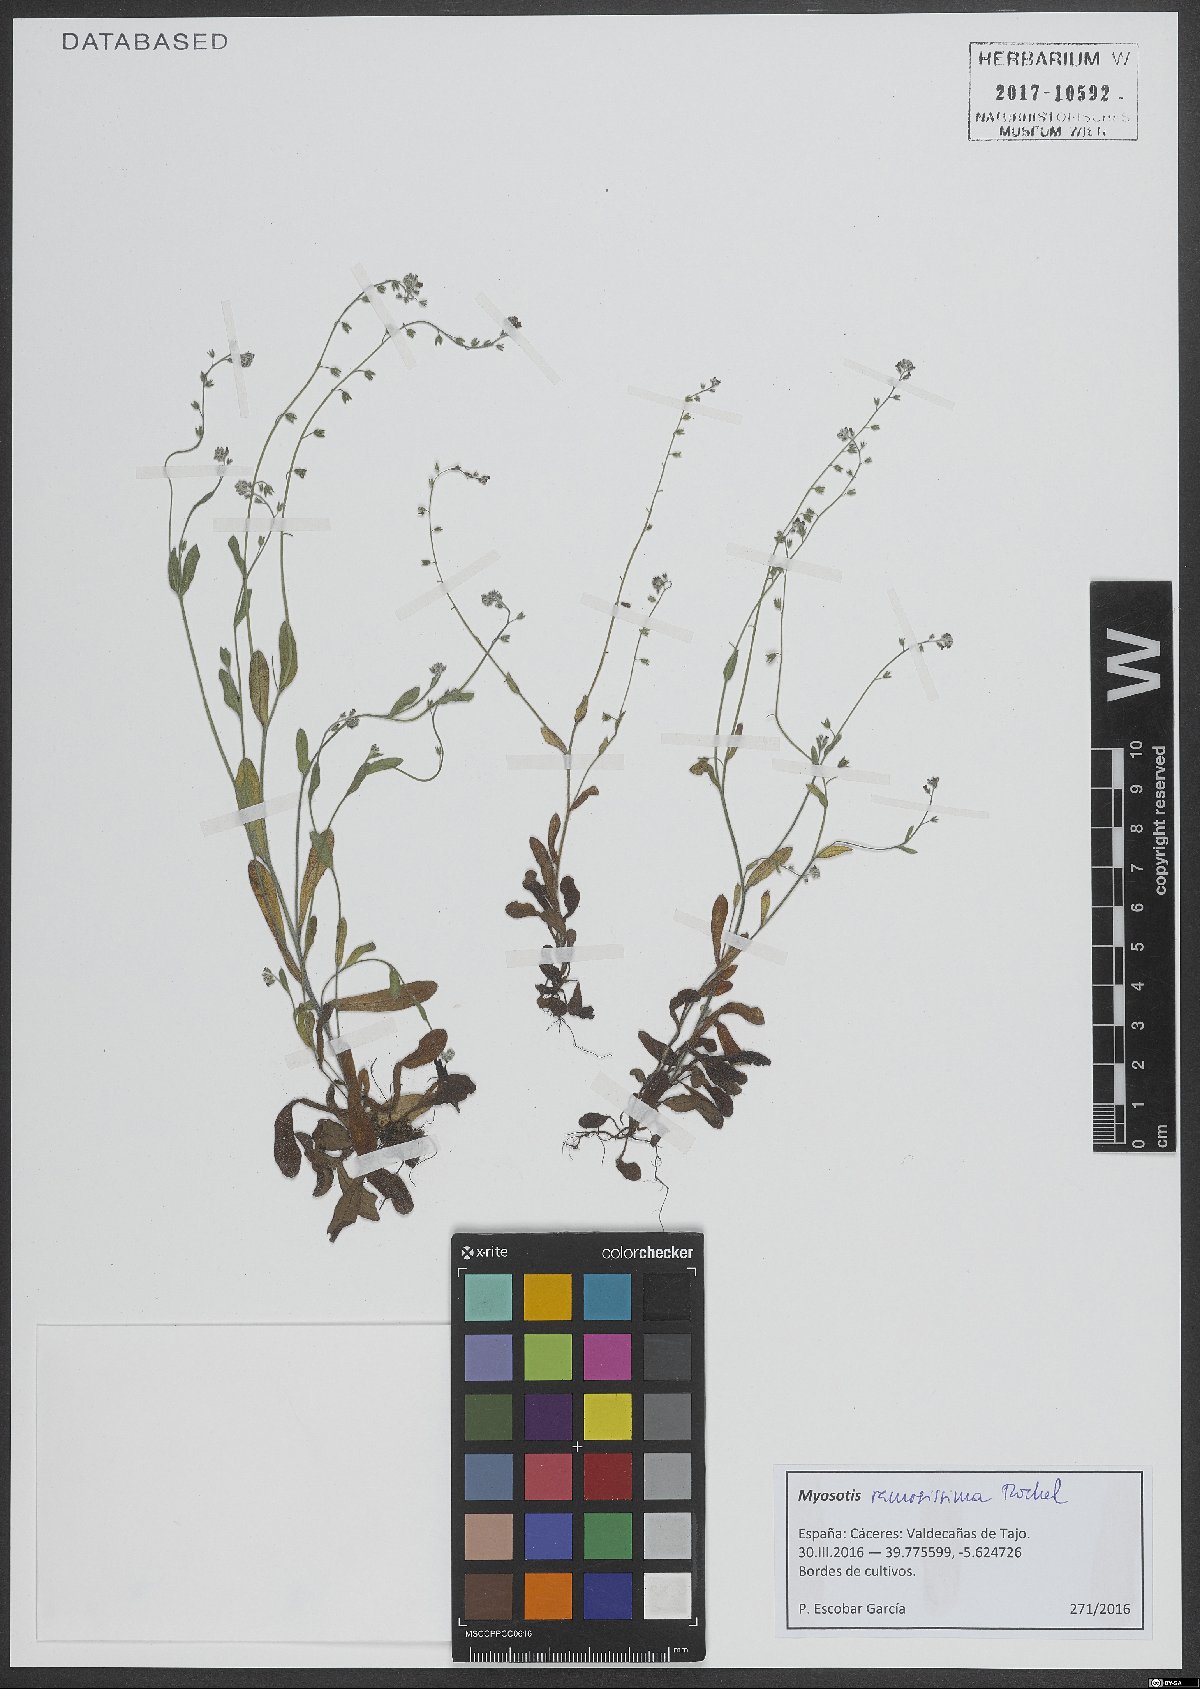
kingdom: Plantae
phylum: Tracheophyta
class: Magnoliopsida
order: Boraginales
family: Boraginaceae
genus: Myosotis
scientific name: Myosotis ramosissima
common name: Early forget-me-not
